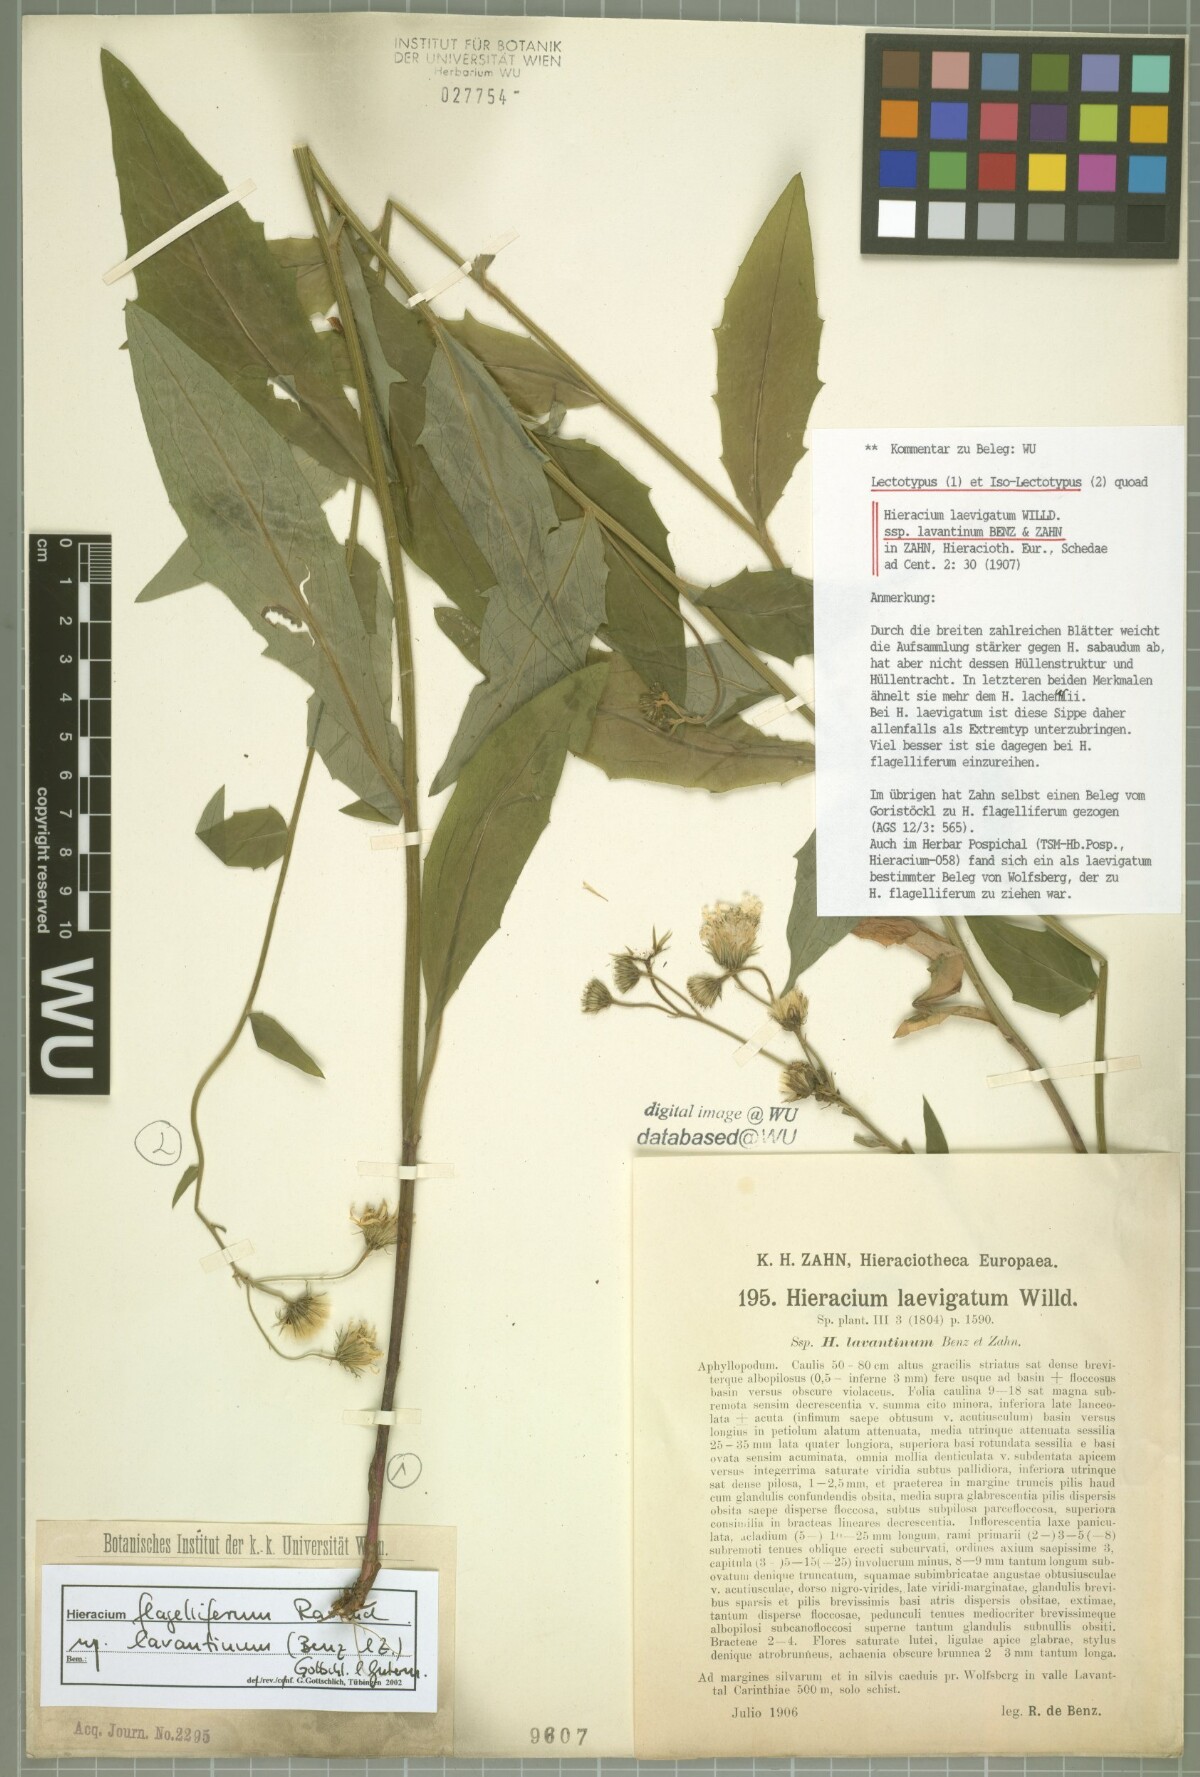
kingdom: Plantae
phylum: Tracheophyta
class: Magnoliopsida
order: Asterales
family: Asteraceae
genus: Hieracium
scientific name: Hieracium laevigatum
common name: Smooth hawkweed
